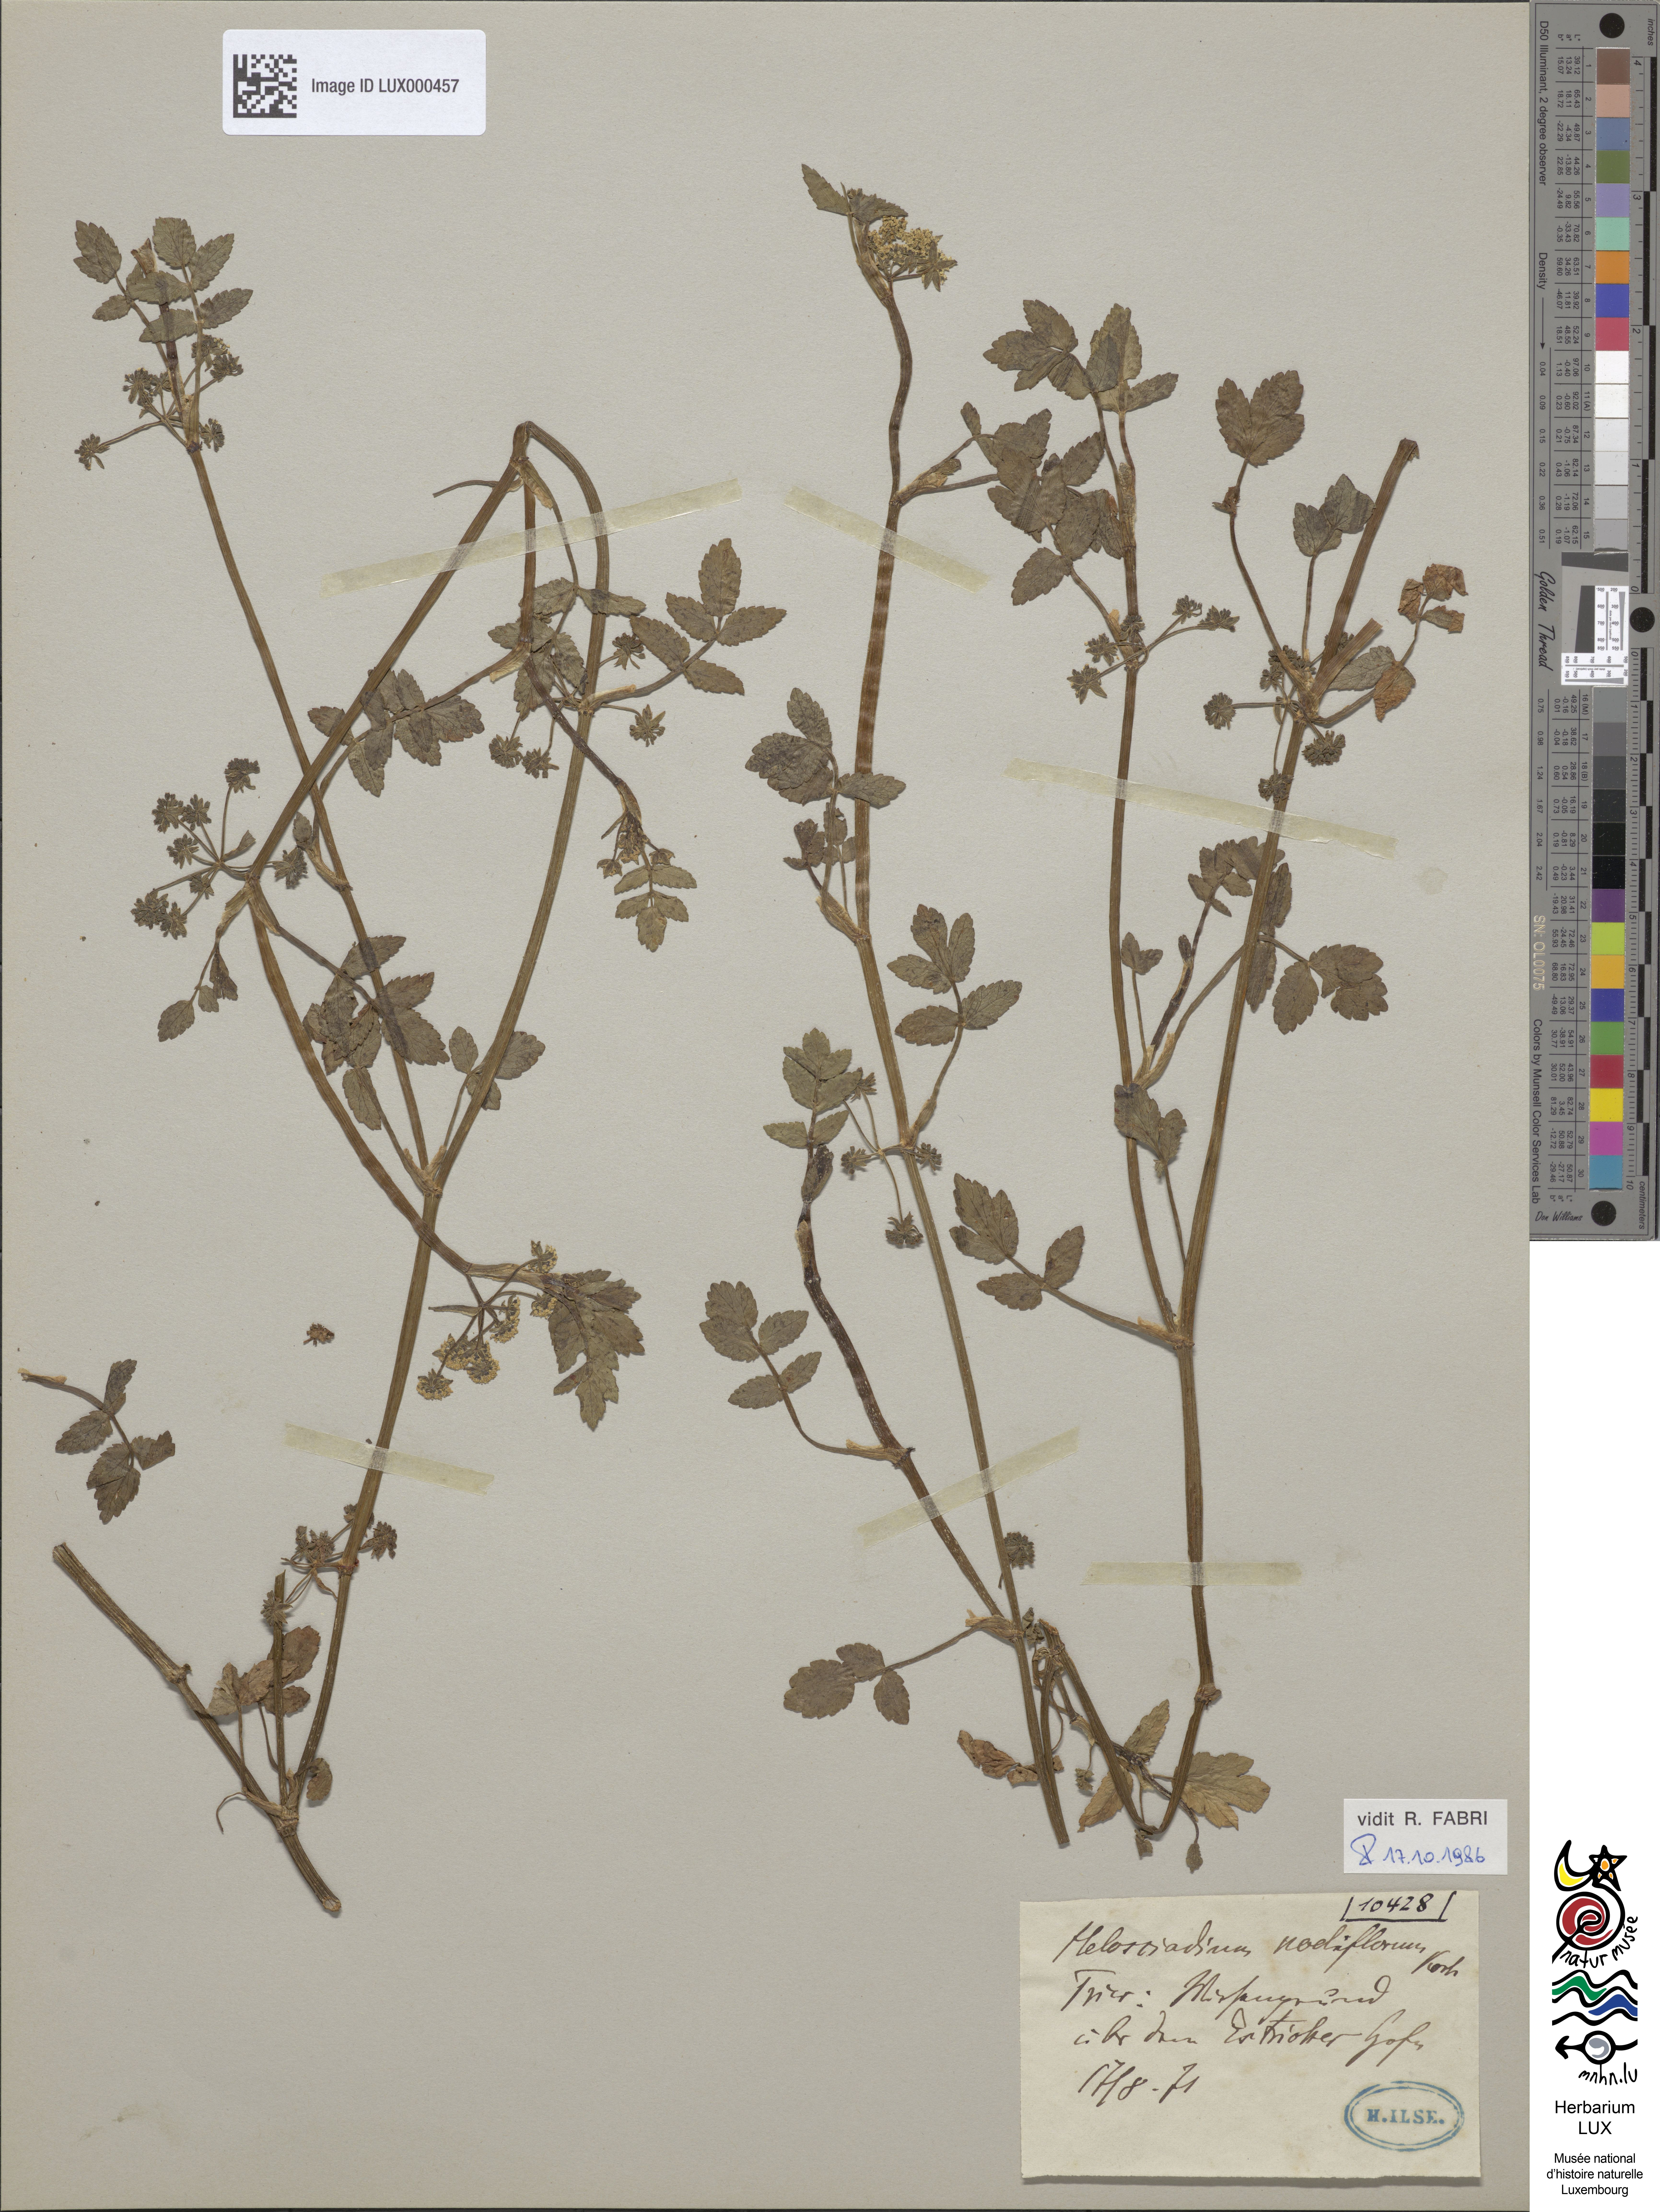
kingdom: Plantae
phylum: Tracheophyta
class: Magnoliopsida
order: Apiales
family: Apiaceae
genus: Helosciadium
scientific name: Helosciadium nodiflorum
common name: Fool's-watercress
